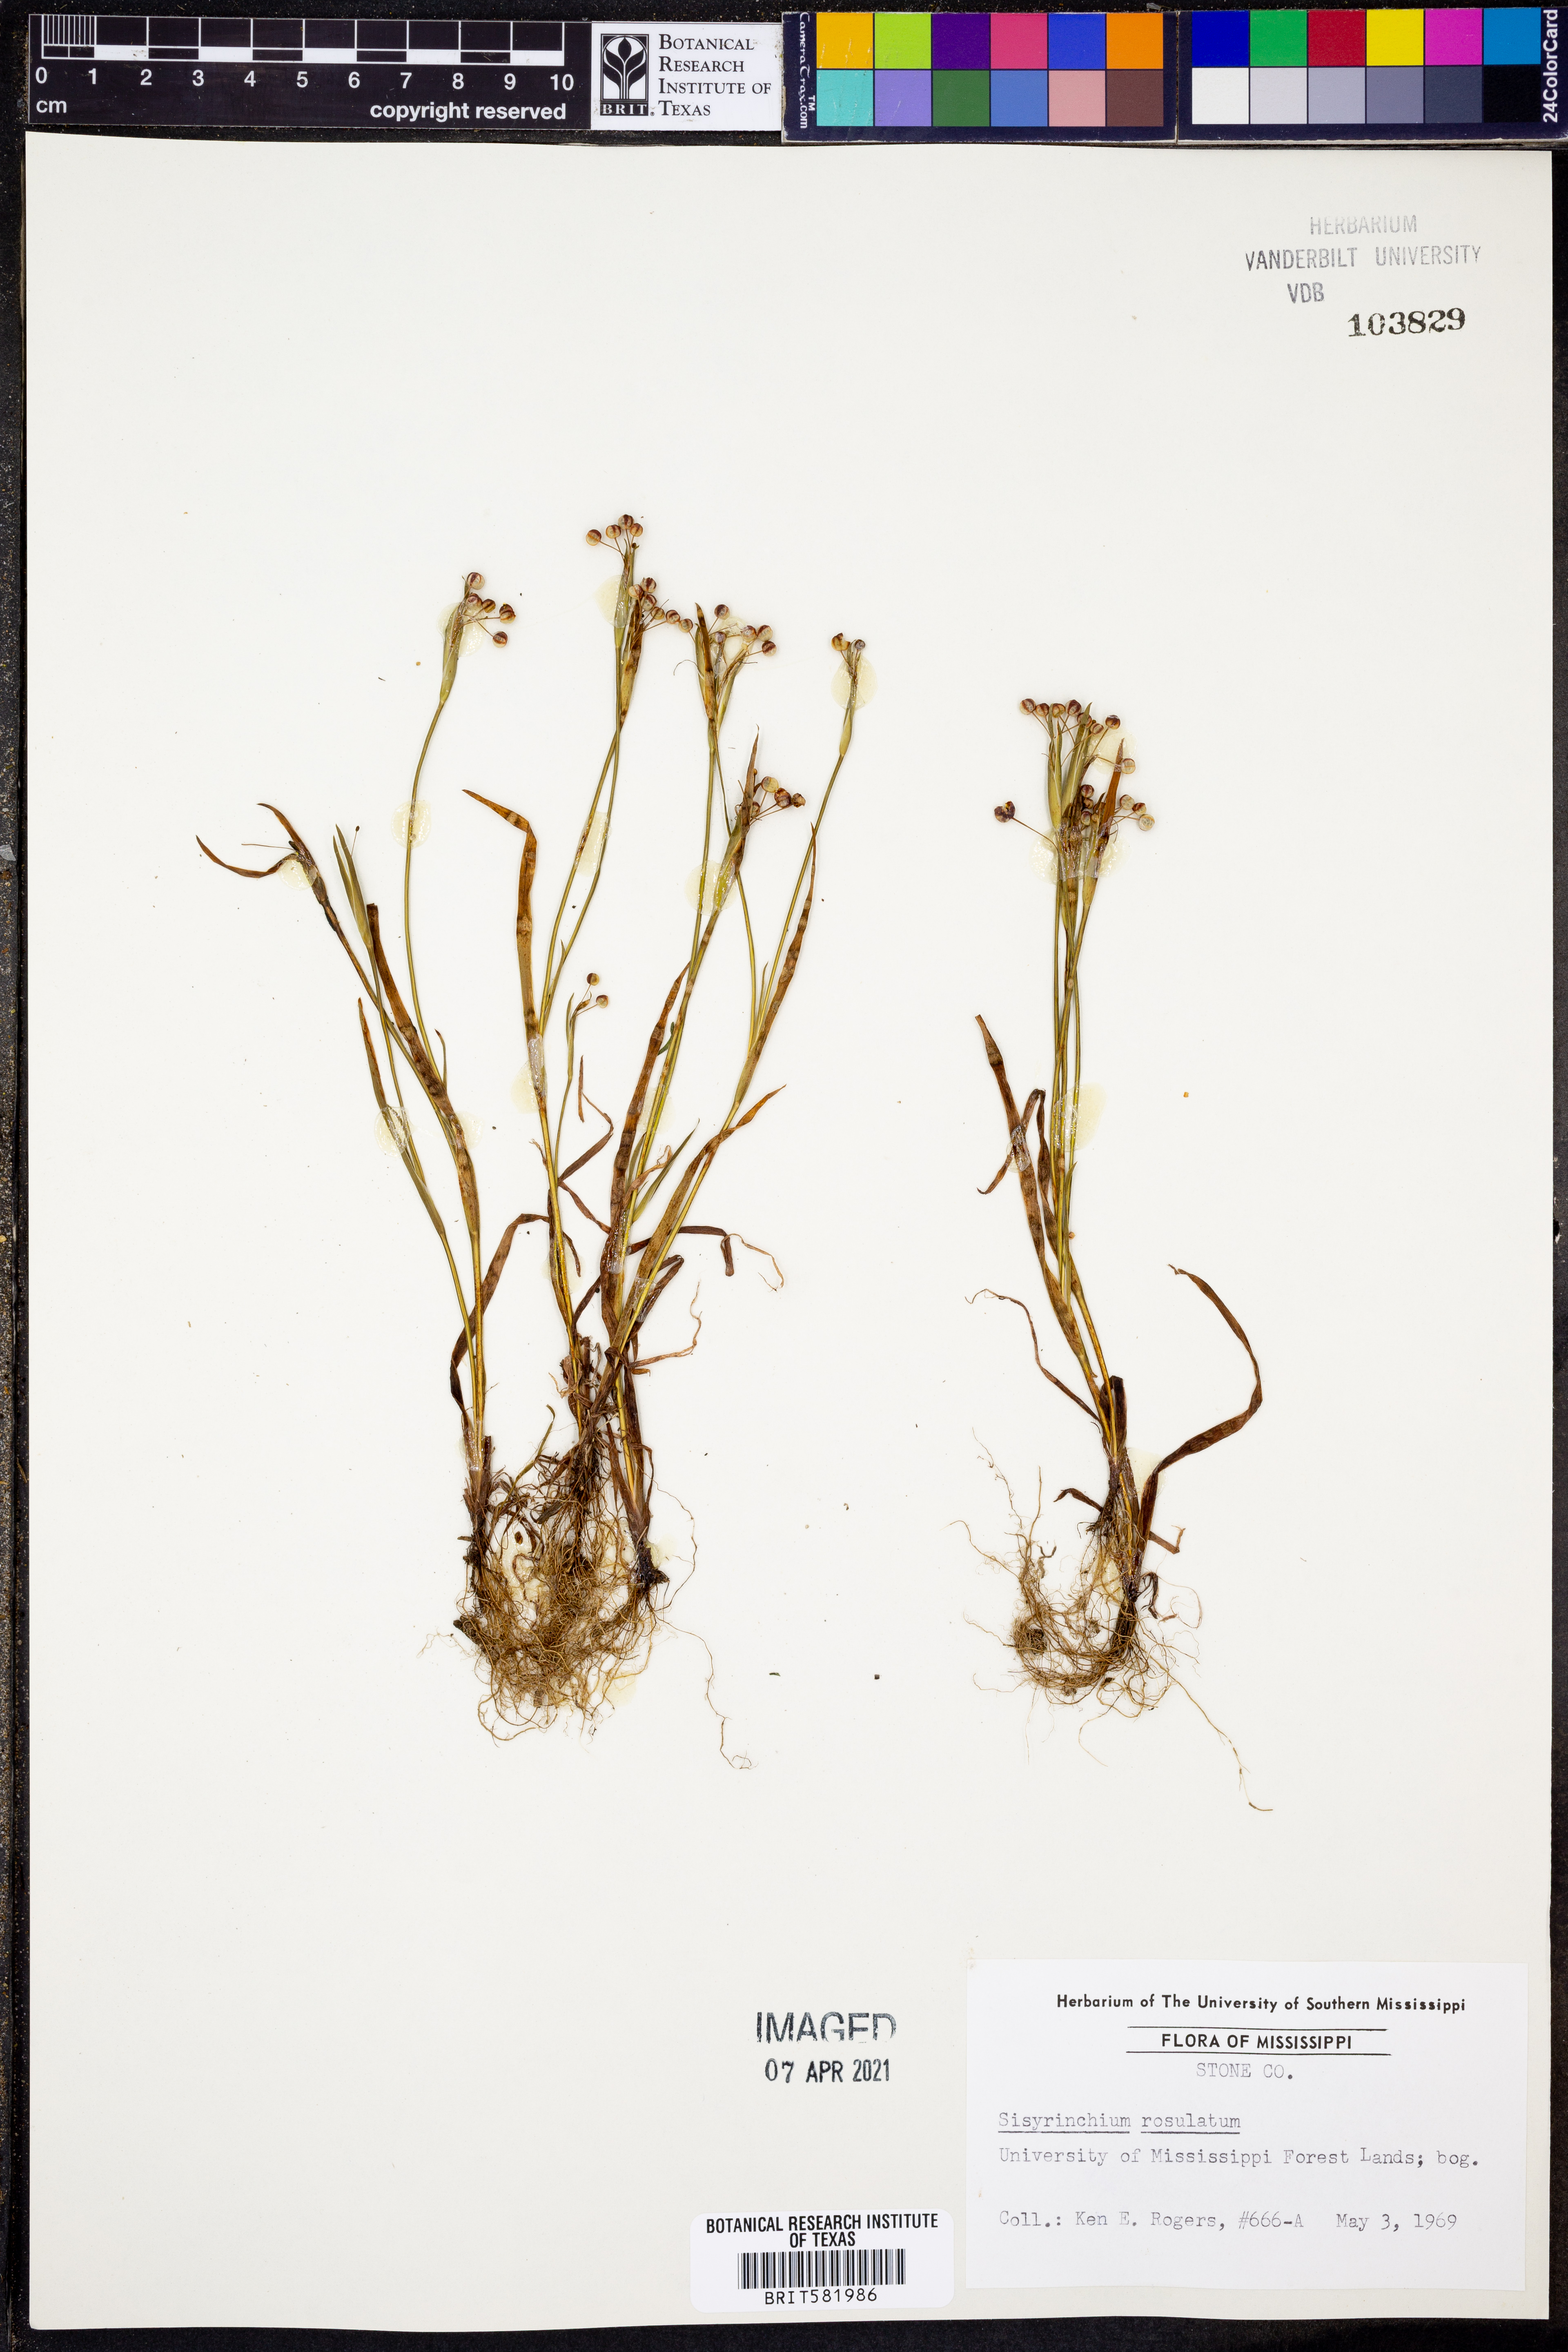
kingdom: Plantae
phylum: Tracheophyta
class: Liliopsida
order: Asparagales
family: Iridaceae
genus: Sisyrinchium
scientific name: Sisyrinchium rosulatum
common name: Annual blue-eyed grass
